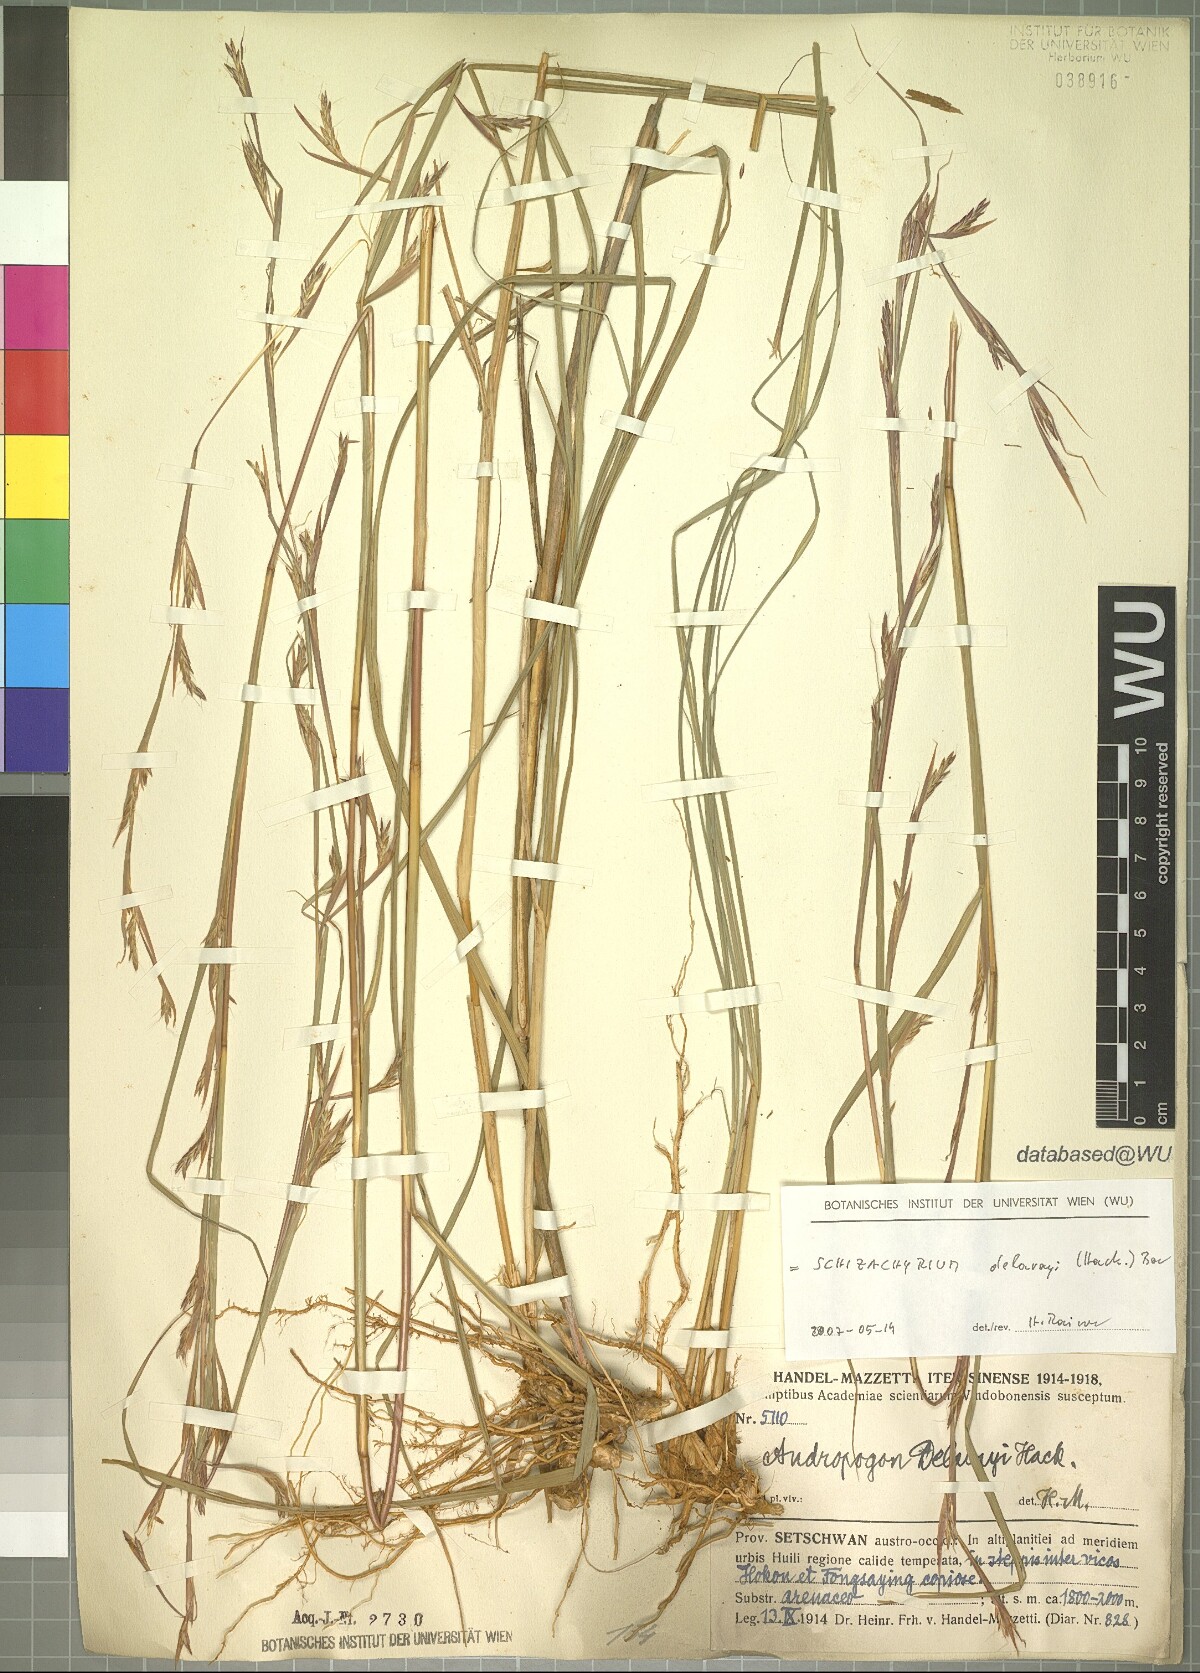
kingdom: Plantae
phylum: Tracheophyta
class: Liliopsida
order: Poales
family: Poaceae
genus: Schizachyrium
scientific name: Schizachyrium delavayi
